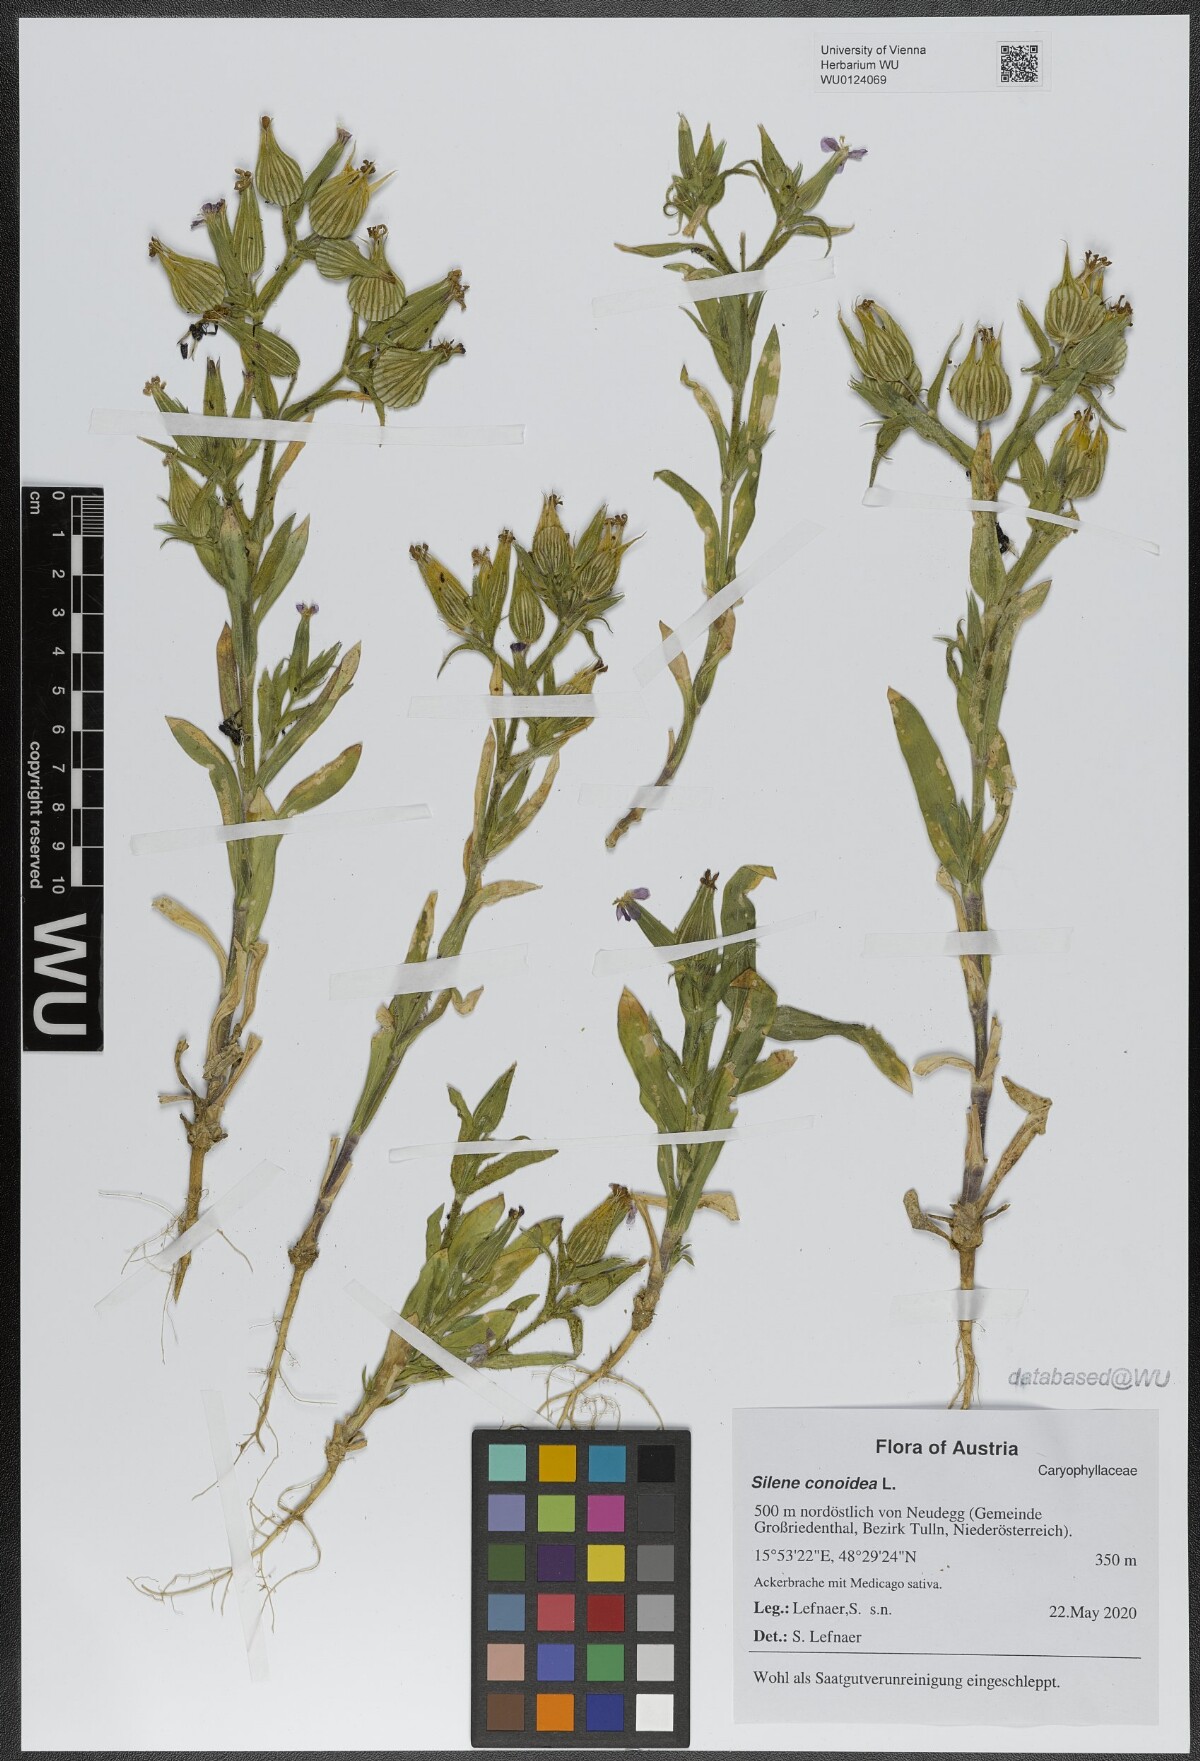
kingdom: Plantae
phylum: Tracheophyta
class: Magnoliopsida
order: Caryophyllales
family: Caryophyllaceae
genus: Silene
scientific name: Silene conoidea
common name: Weed silene
